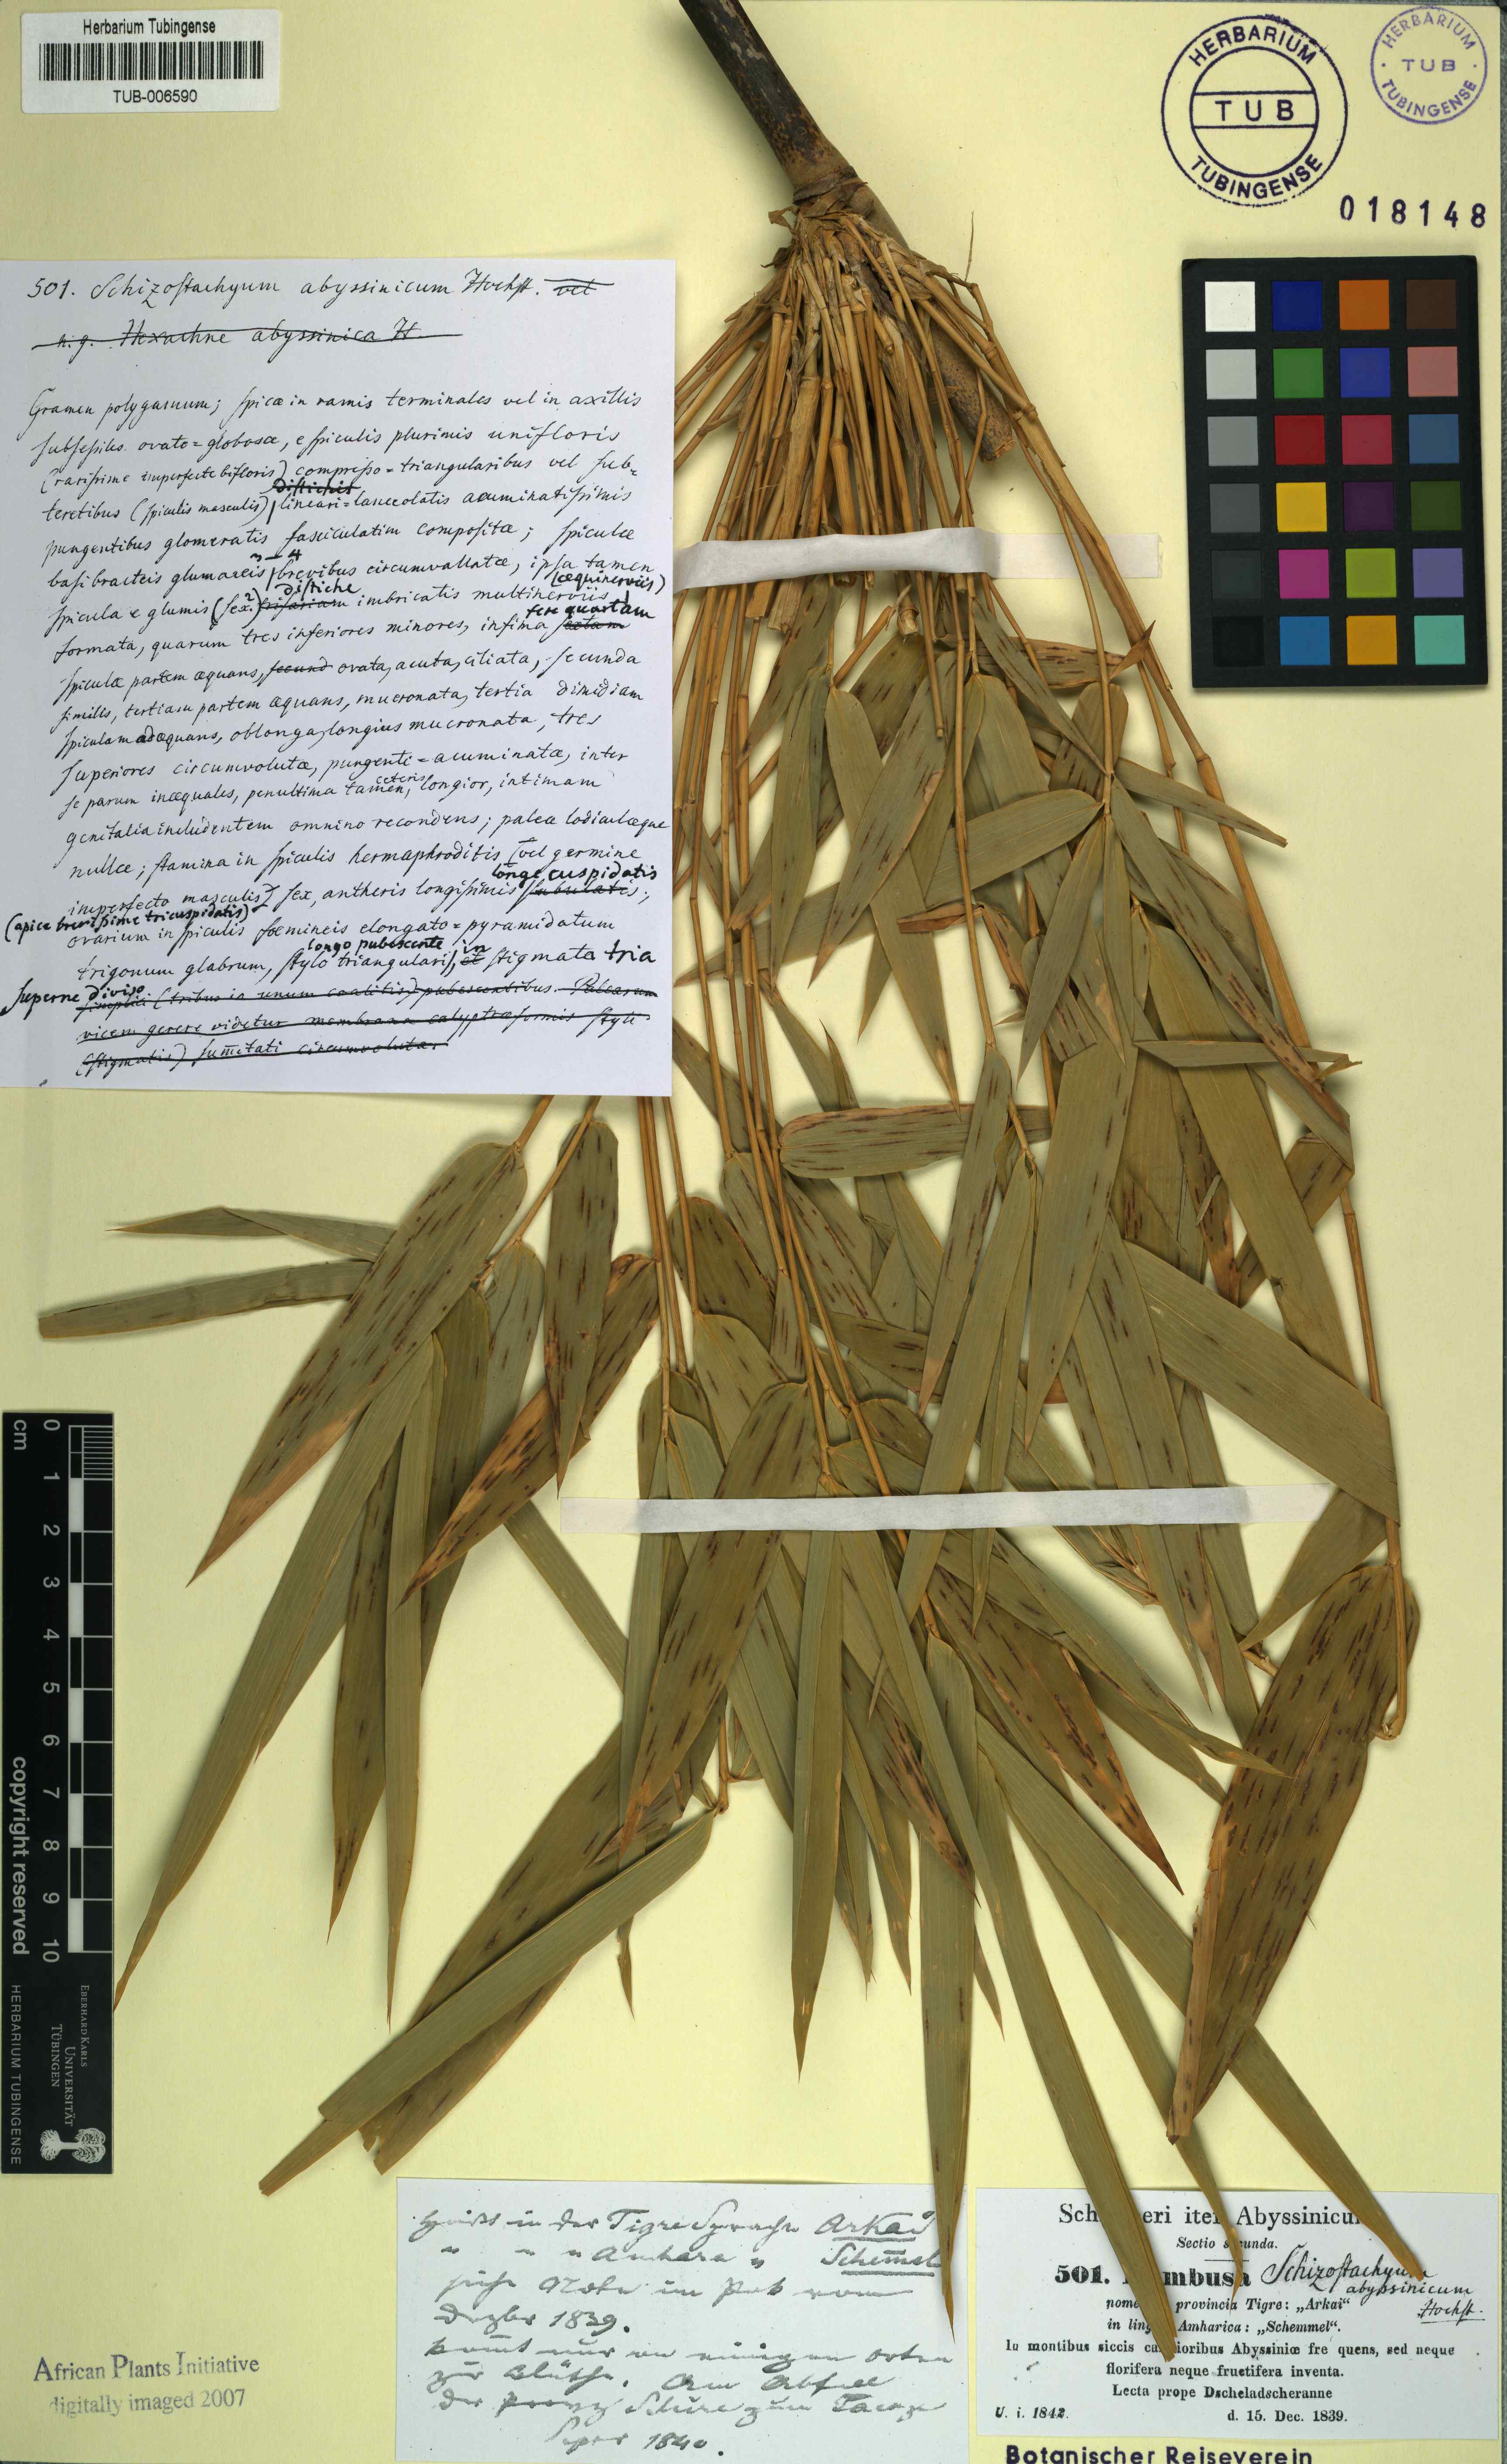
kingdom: Plantae
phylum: Tracheophyta
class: Liliopsida
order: Poales
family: Poaceae
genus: Schizostachyum
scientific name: Schizostachyum
